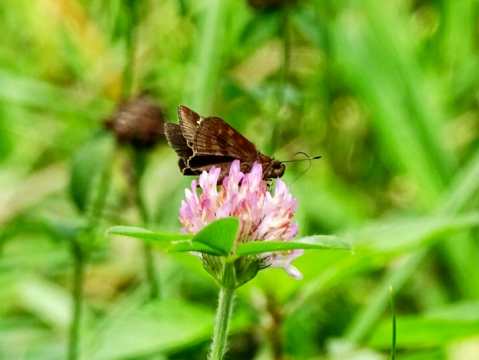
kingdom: Animalia
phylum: Arthropoda
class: Insecta
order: Lepidoptera
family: Hesperiidae
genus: Lerema
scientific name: Lerema accius
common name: Clouded Skipper
